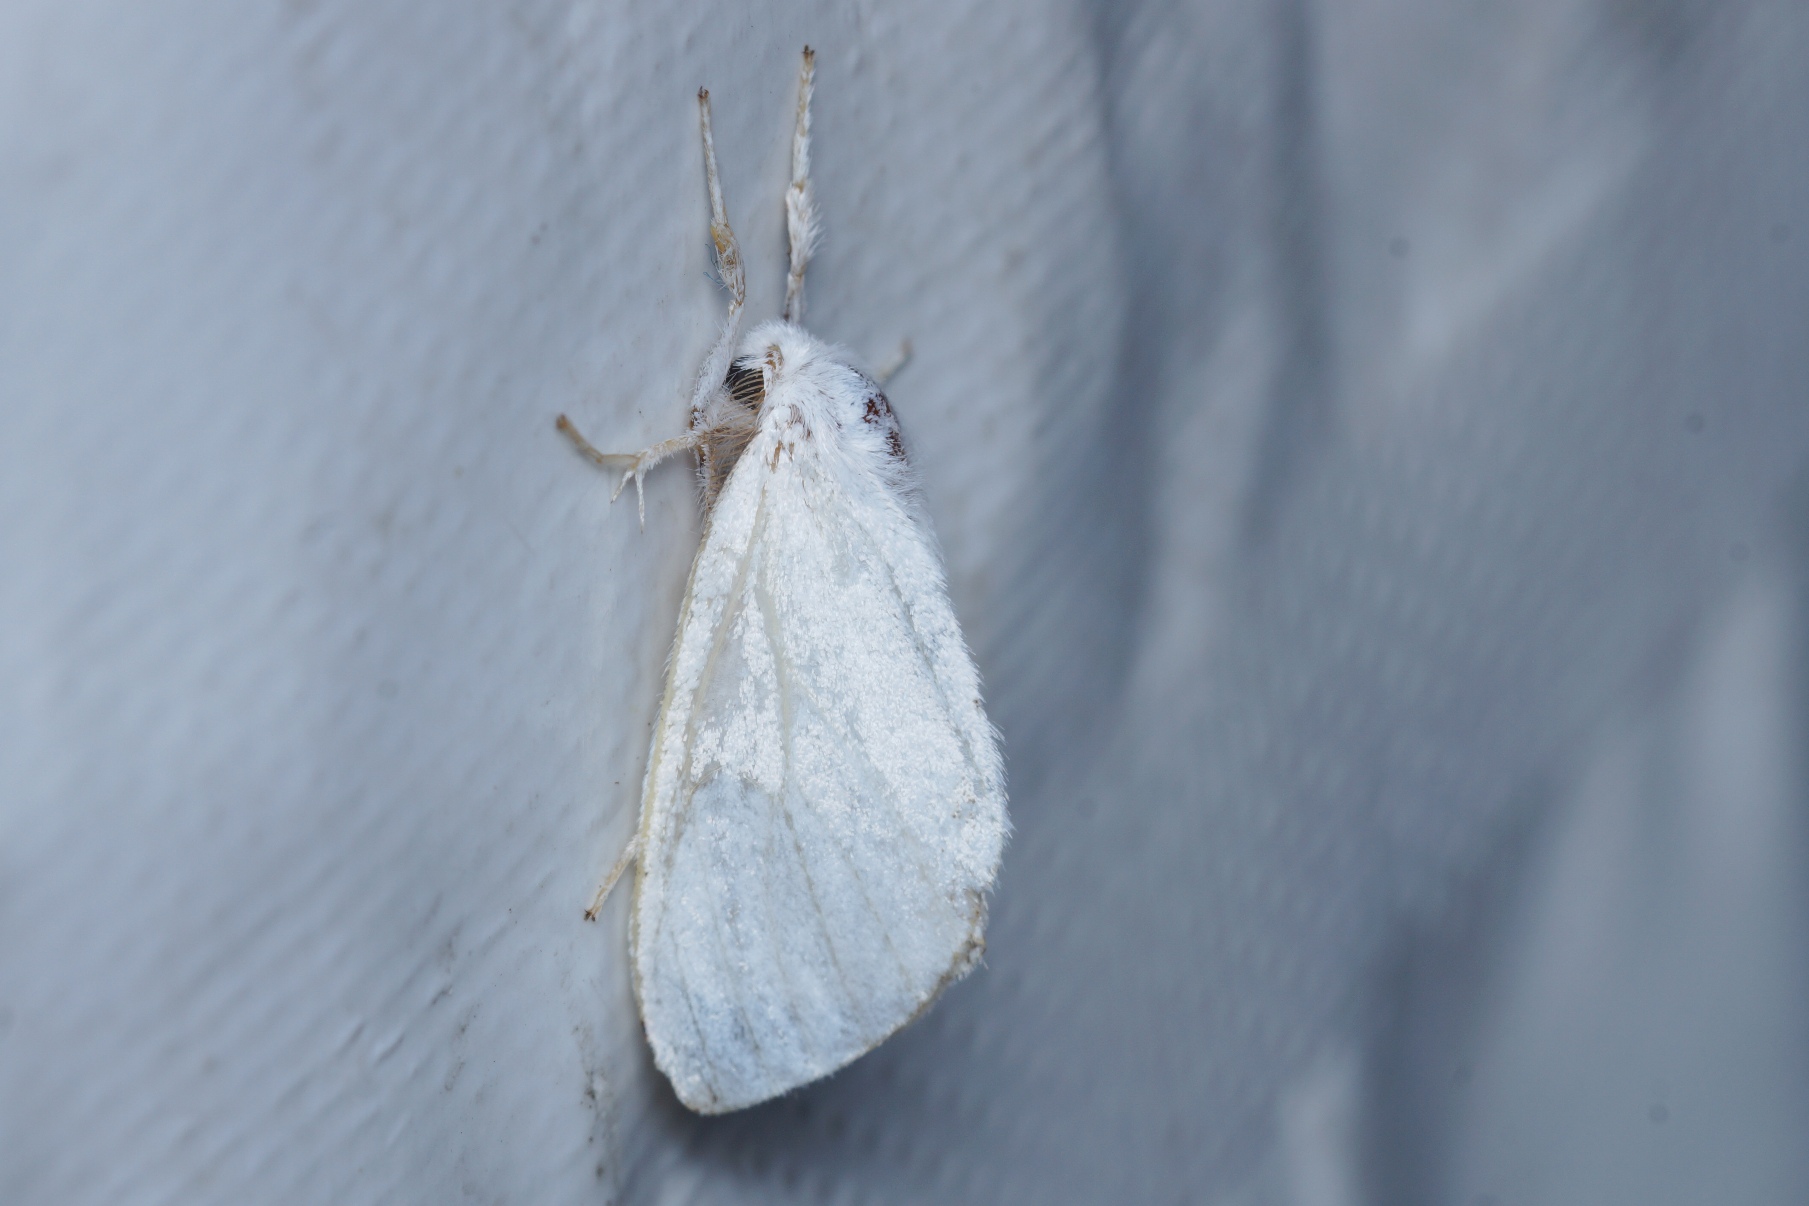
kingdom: Animalia
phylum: Arthropoda
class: Insecta
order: Lepidoptera
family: Erebidae
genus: Leucoma
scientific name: Leucoma salicis
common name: Atlaskspinder
